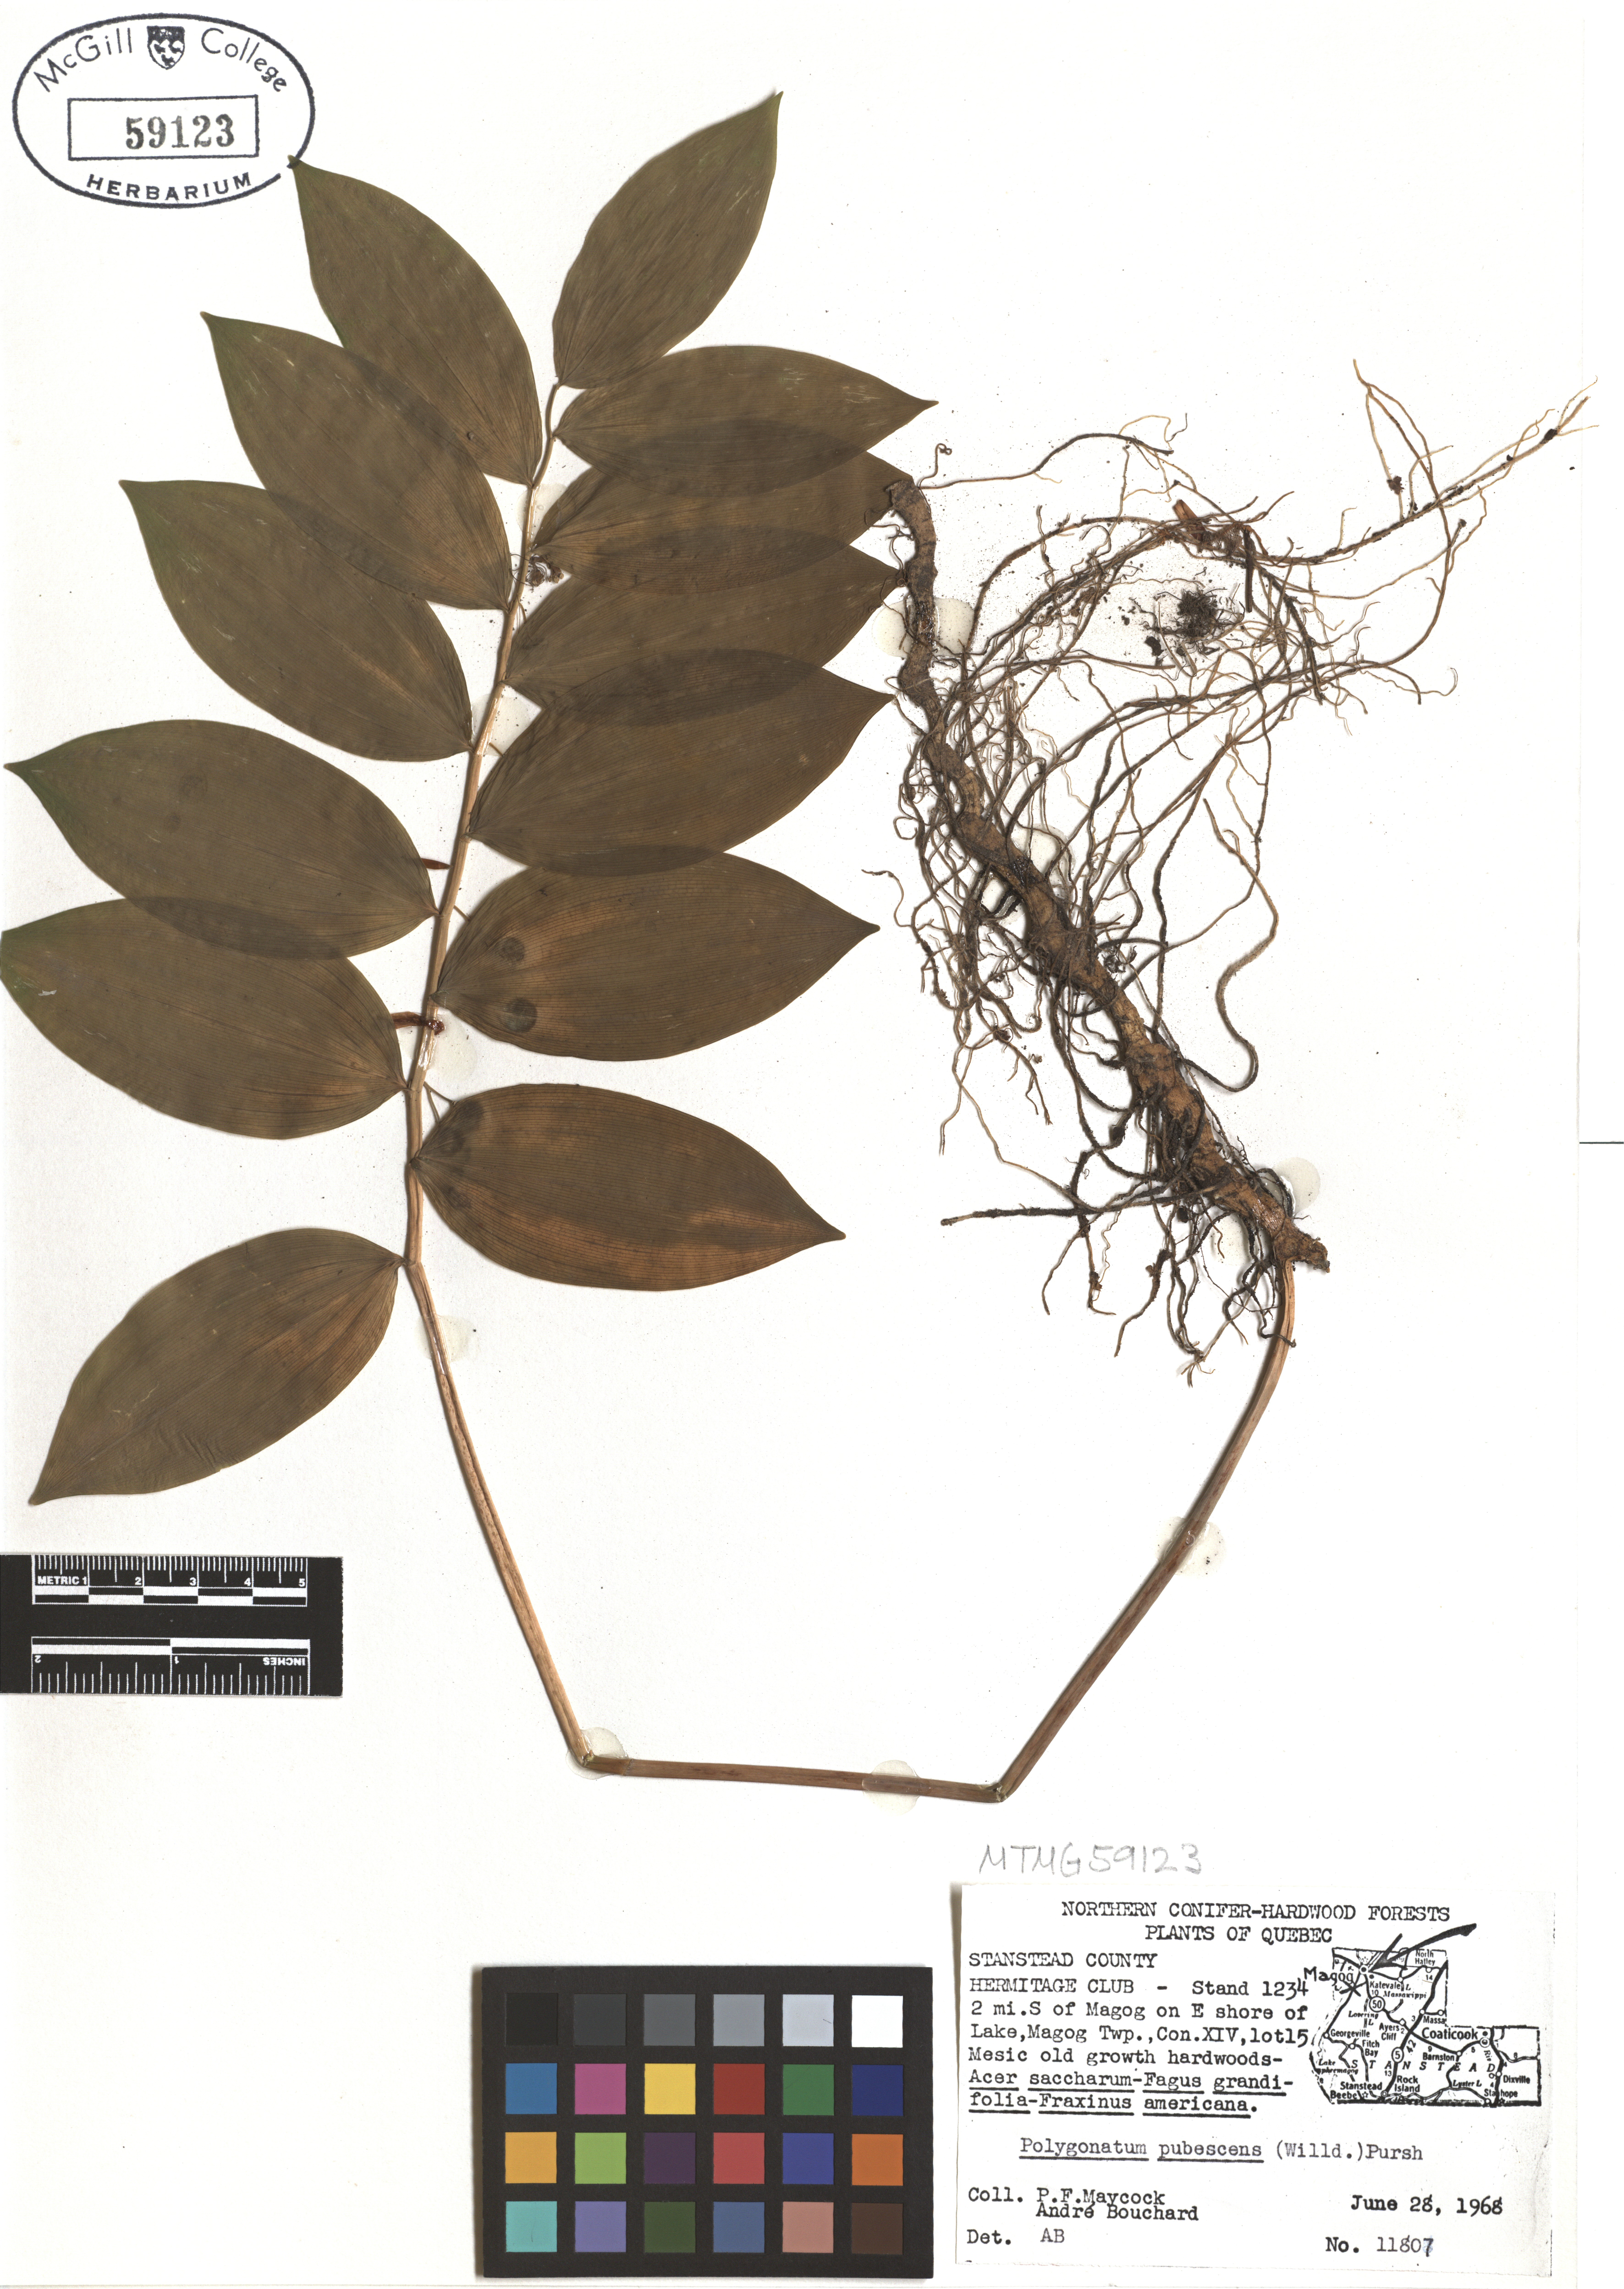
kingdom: Plantae
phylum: Tracheophyta
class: Liliopsida
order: Asparagales
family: Asparagaceae
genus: Polygonatum
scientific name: Polygonatum pubescens
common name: Downy solomon's seal
